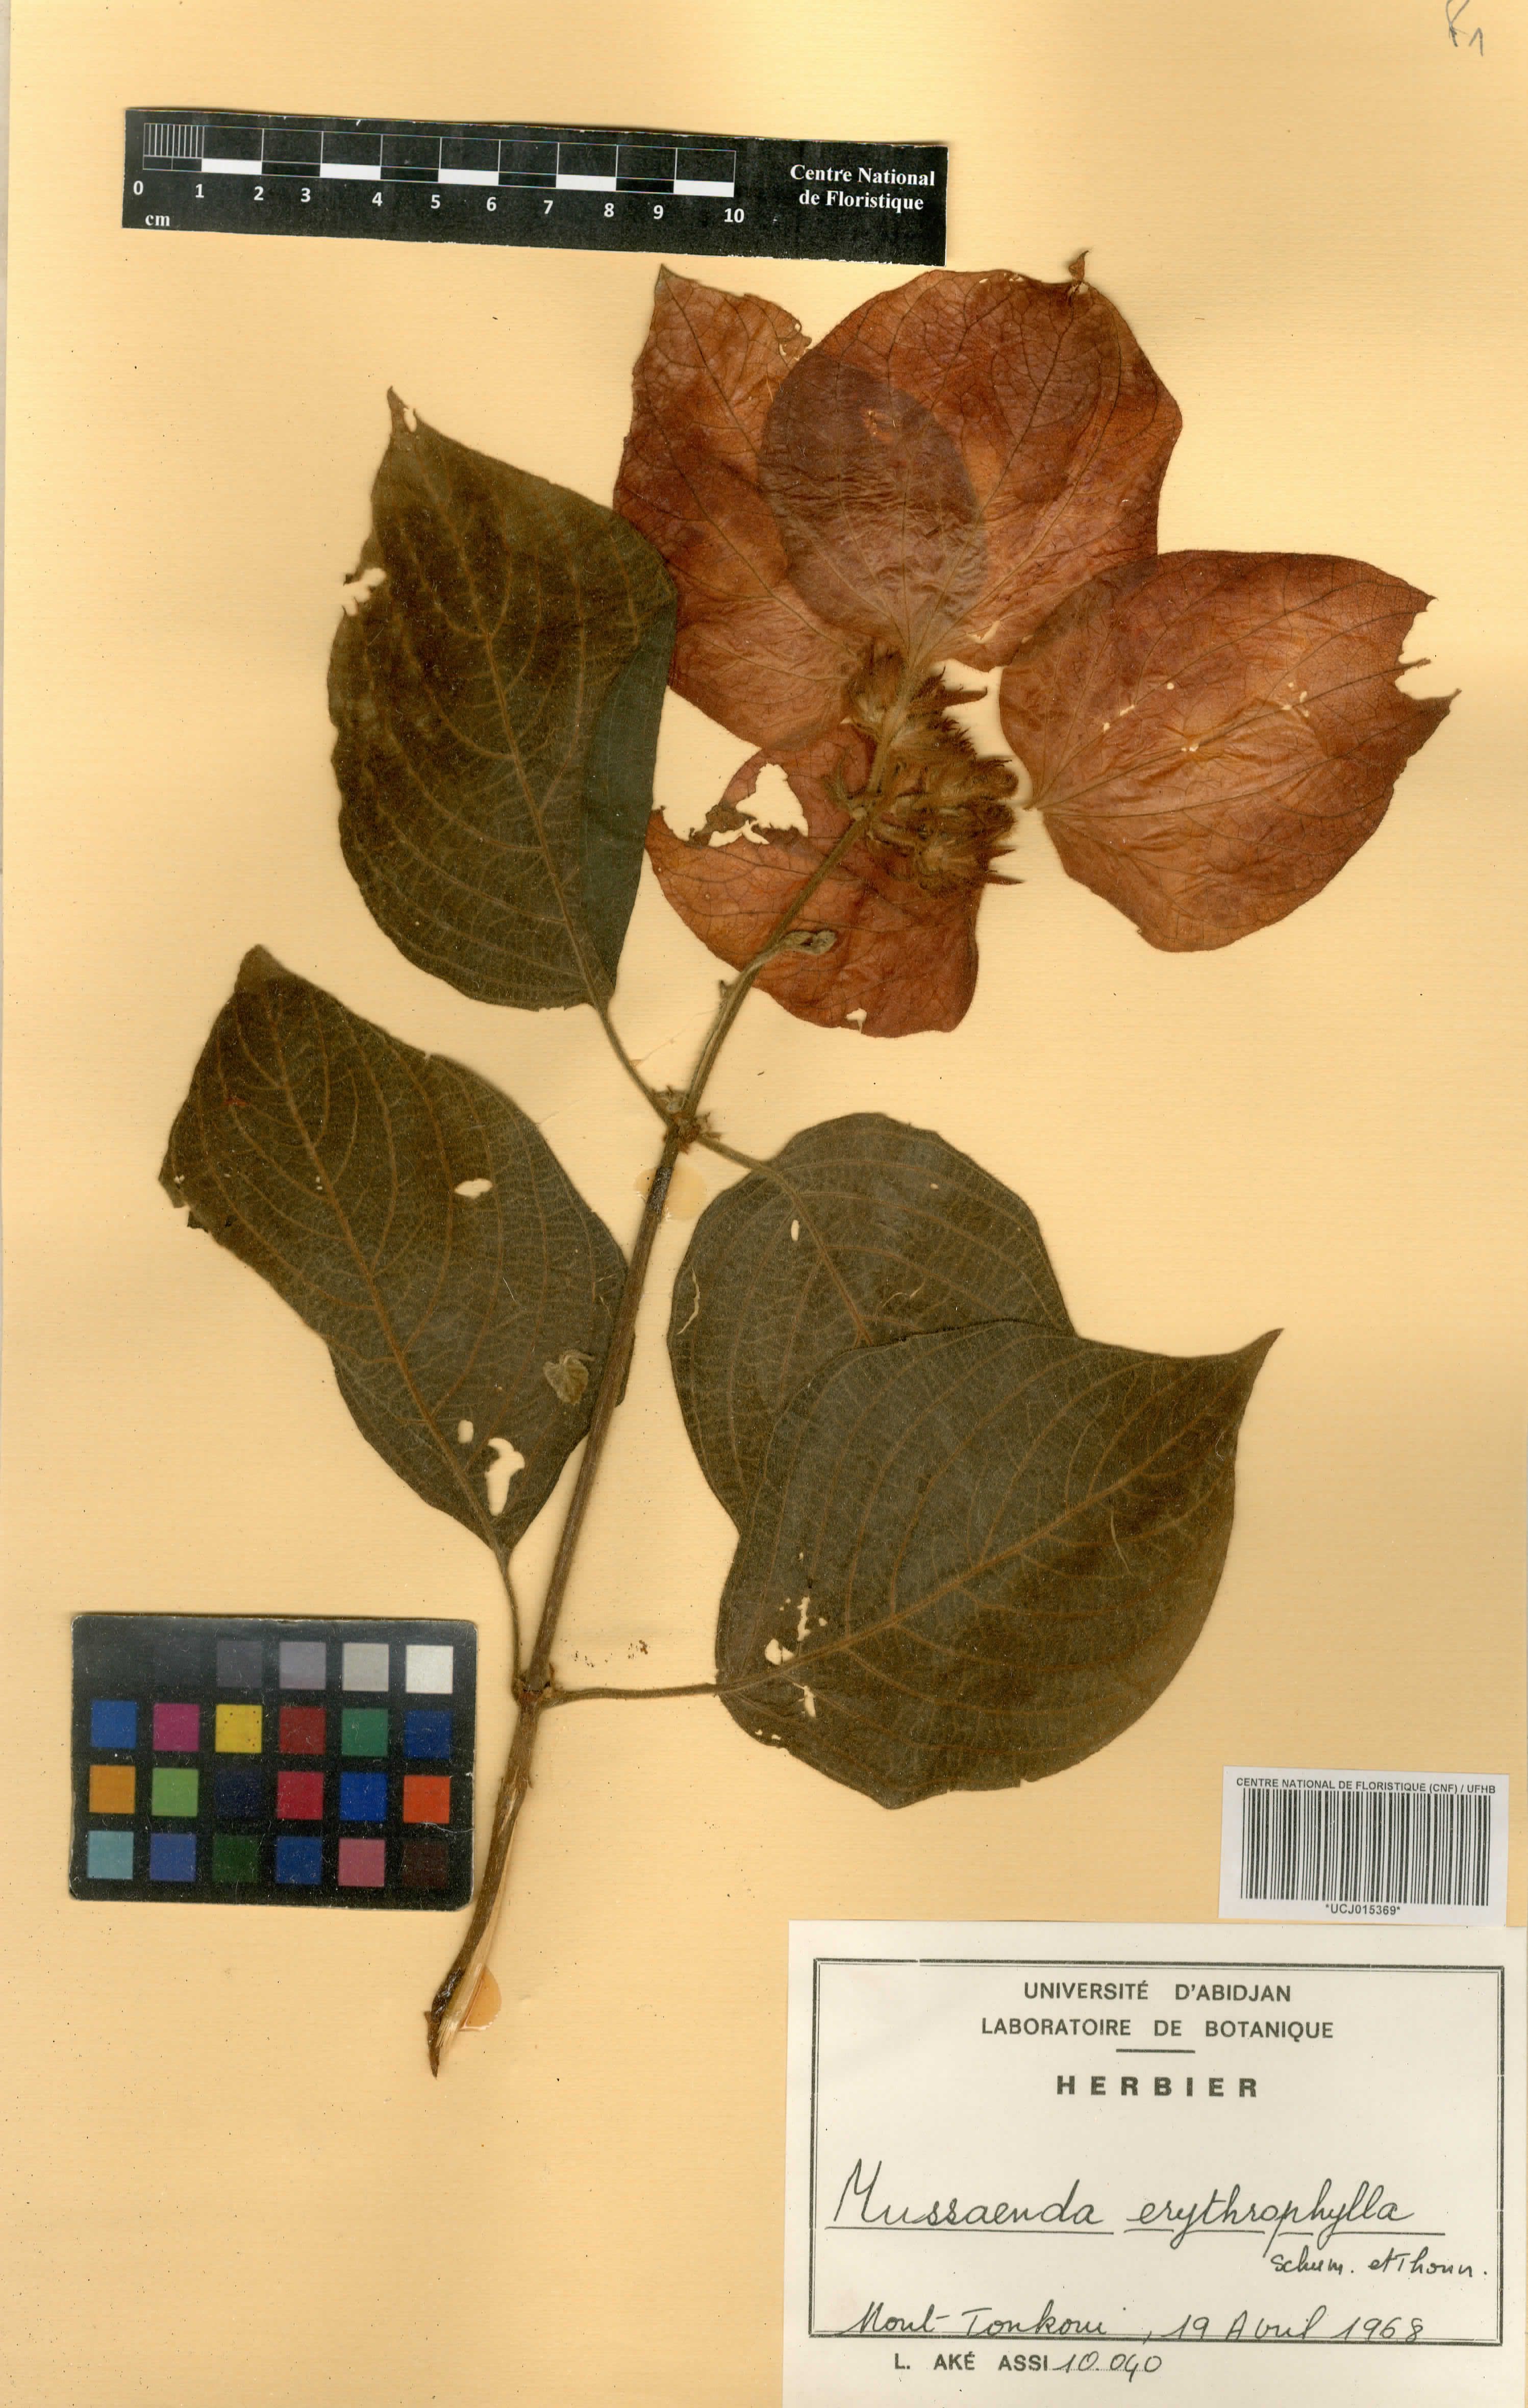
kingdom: Plantae
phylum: Tracheophyta
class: Magnoliopsida
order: Gentianales
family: Rubiaceae
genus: Mussaenda
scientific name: Mussaenda erythrophylla
